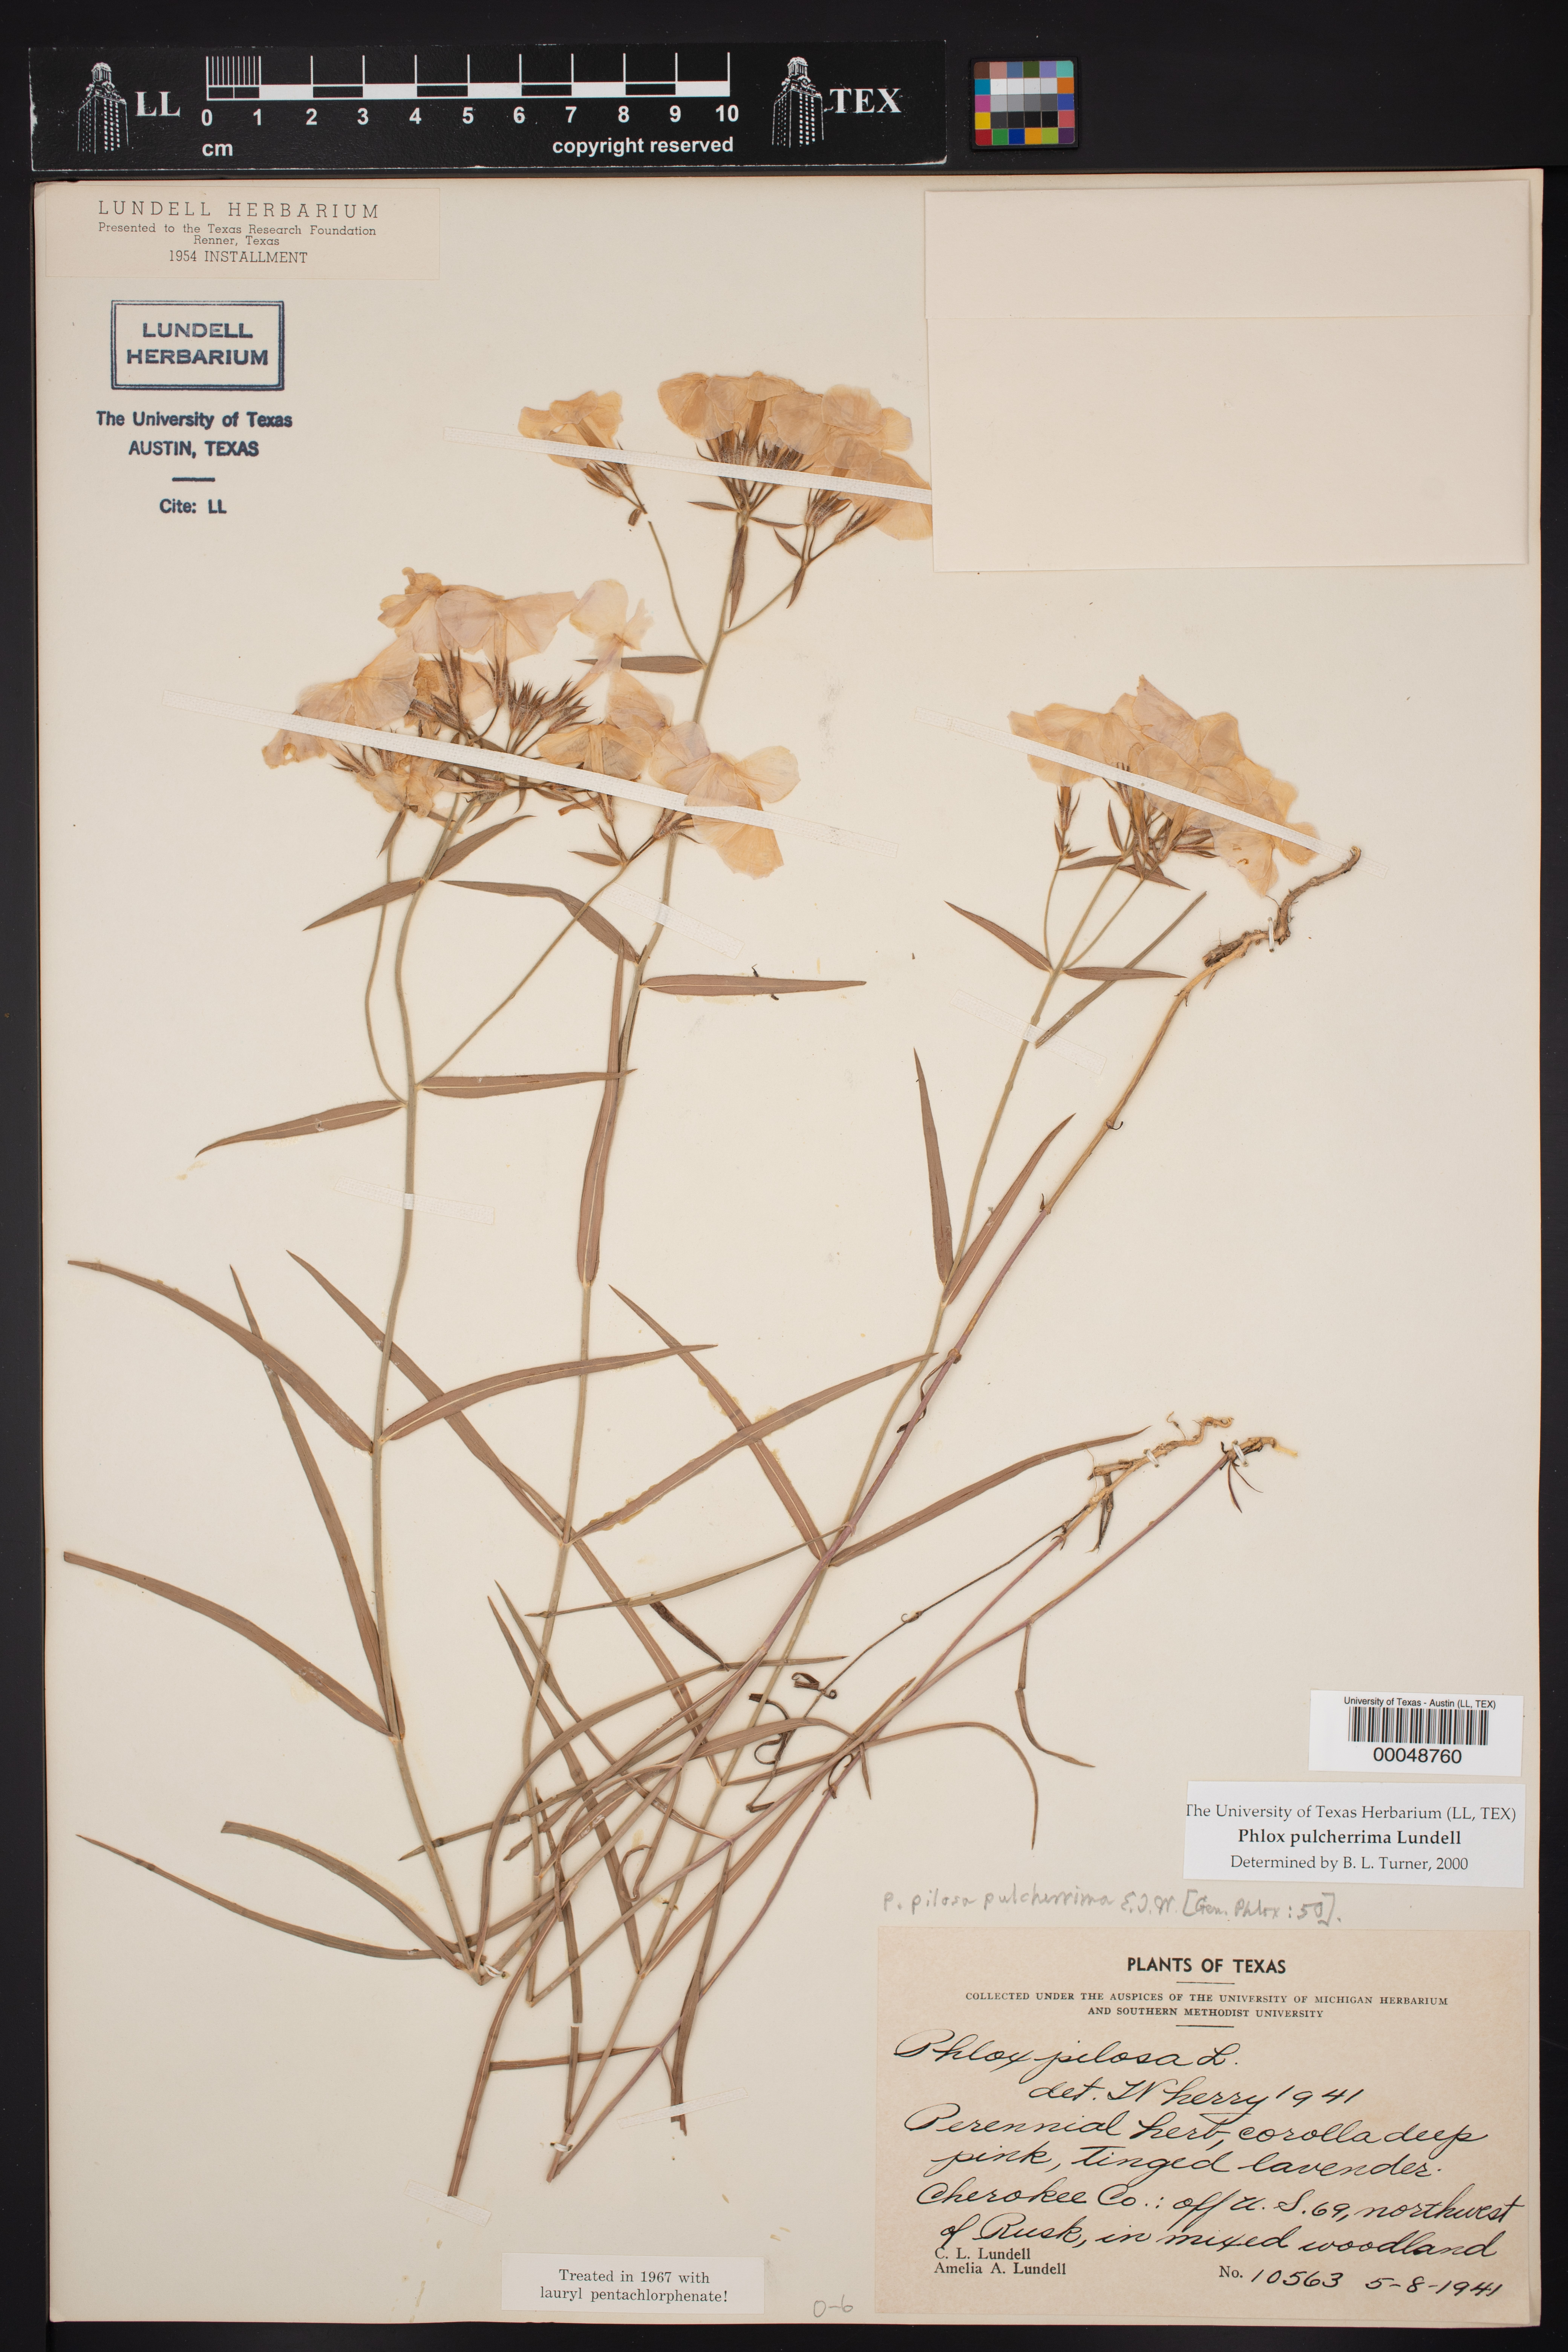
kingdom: Plantae
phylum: Tracheophyta
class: Magnoliopsida
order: Ericales
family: Polemoniaceae
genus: Phlox
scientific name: Phlox pilosa
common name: Prairie phlox
